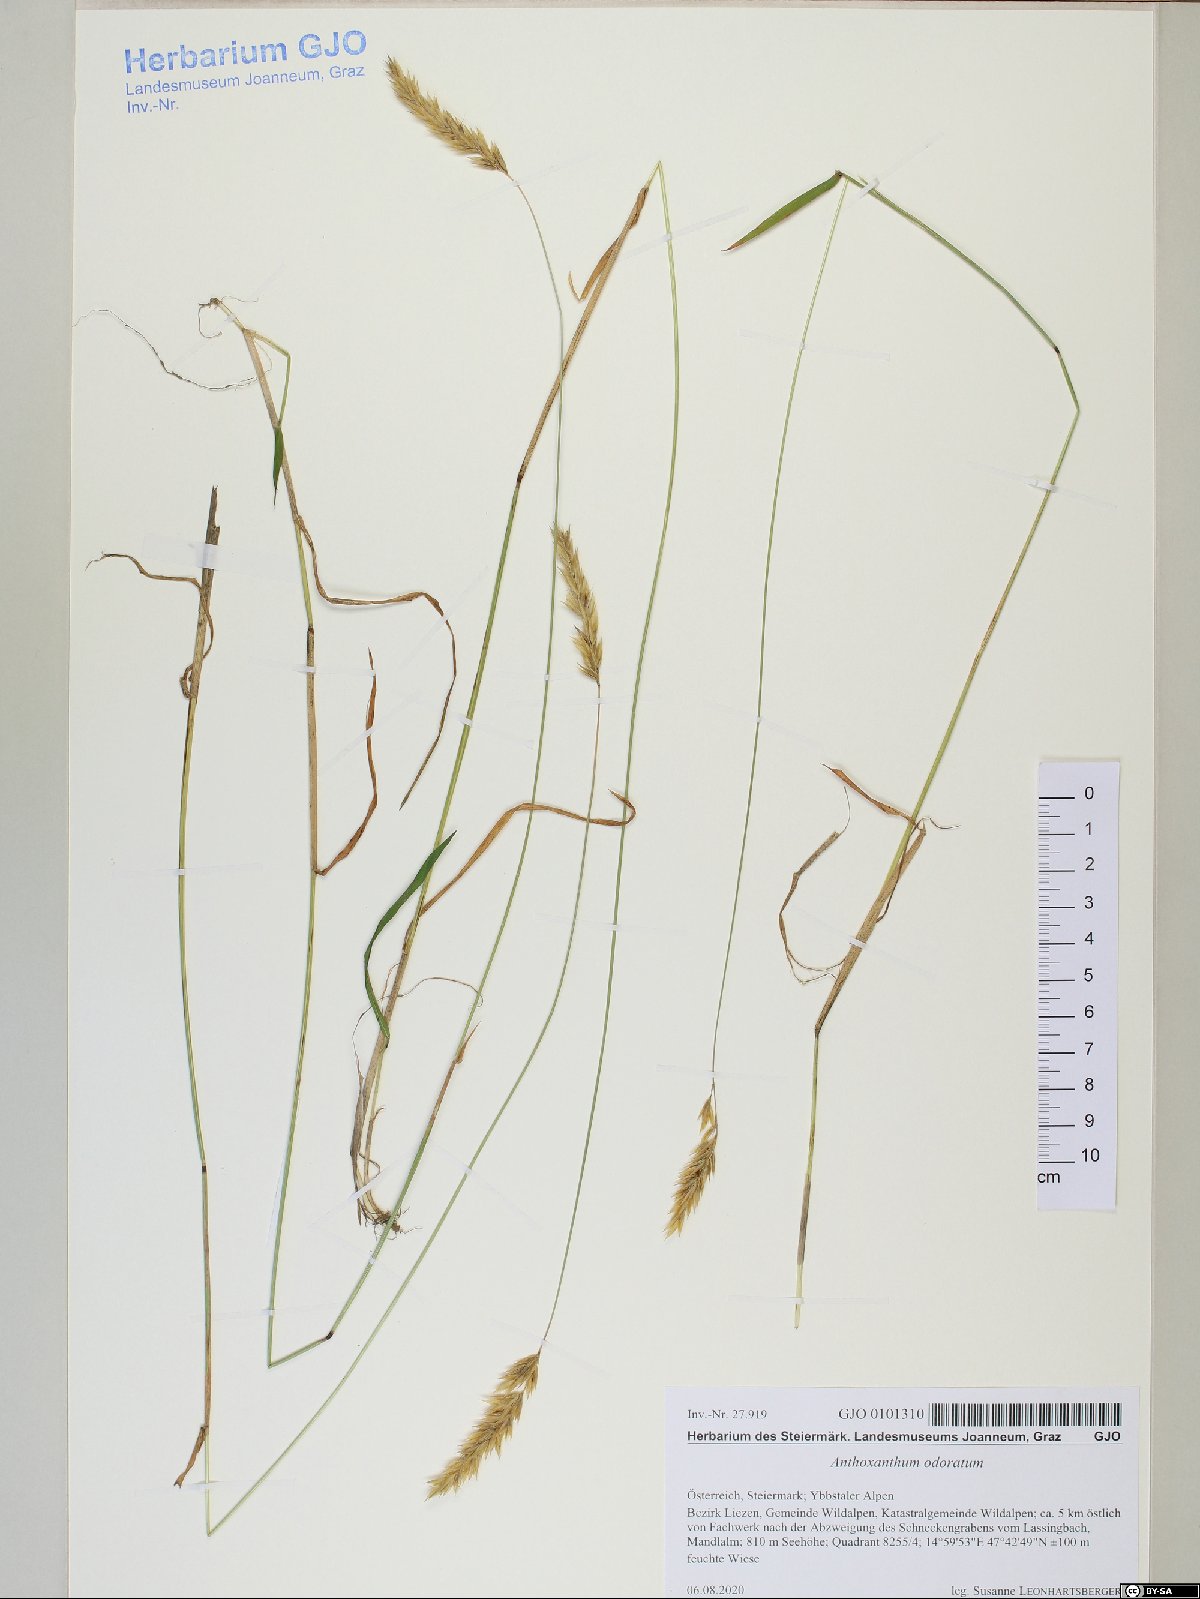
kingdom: Plantae
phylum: Tracheophyta
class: Liliopsida
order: Poales
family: Poaceae
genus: Anthoxanthum
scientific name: Anthoxanthum odoratum
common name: Sweet vernalgrass
